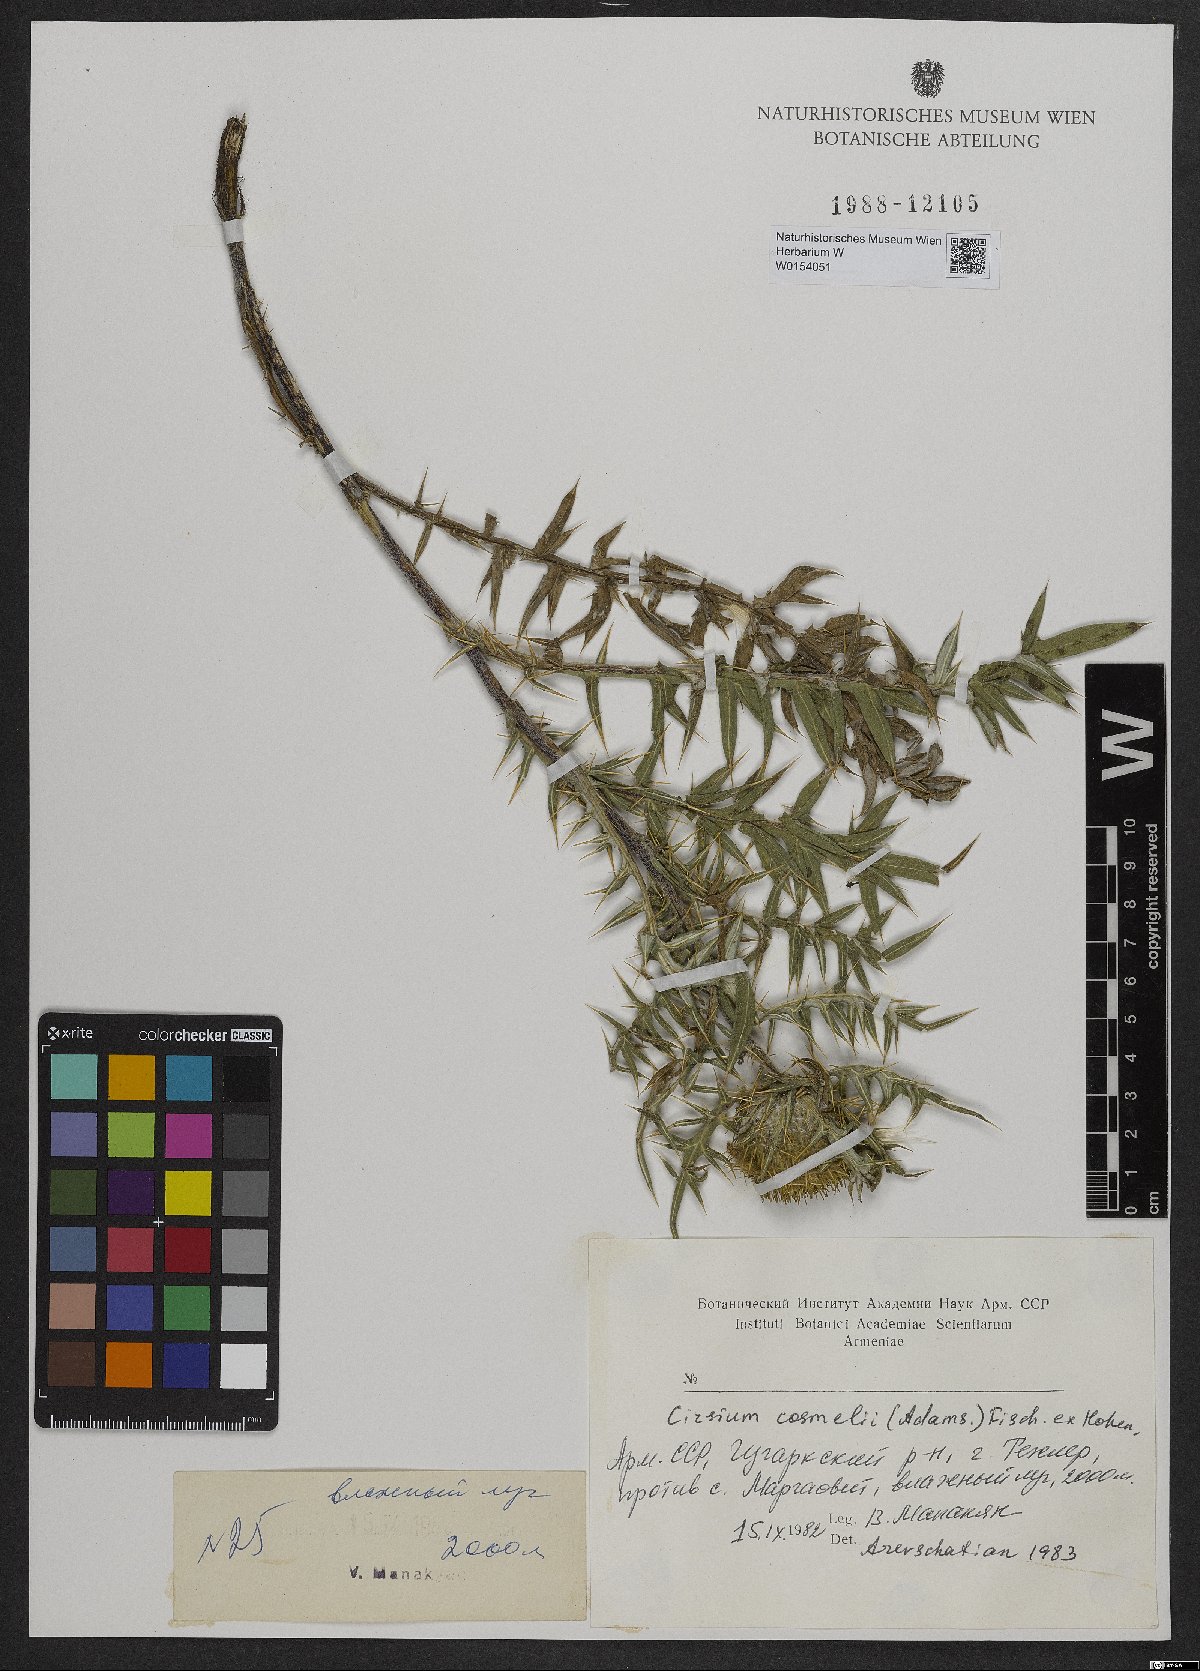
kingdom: Plantae
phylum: Tracheophyta
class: Magnoliopsida
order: Asterales
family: Asteraceae
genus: Cirsium
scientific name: Cirsium cosmelii
